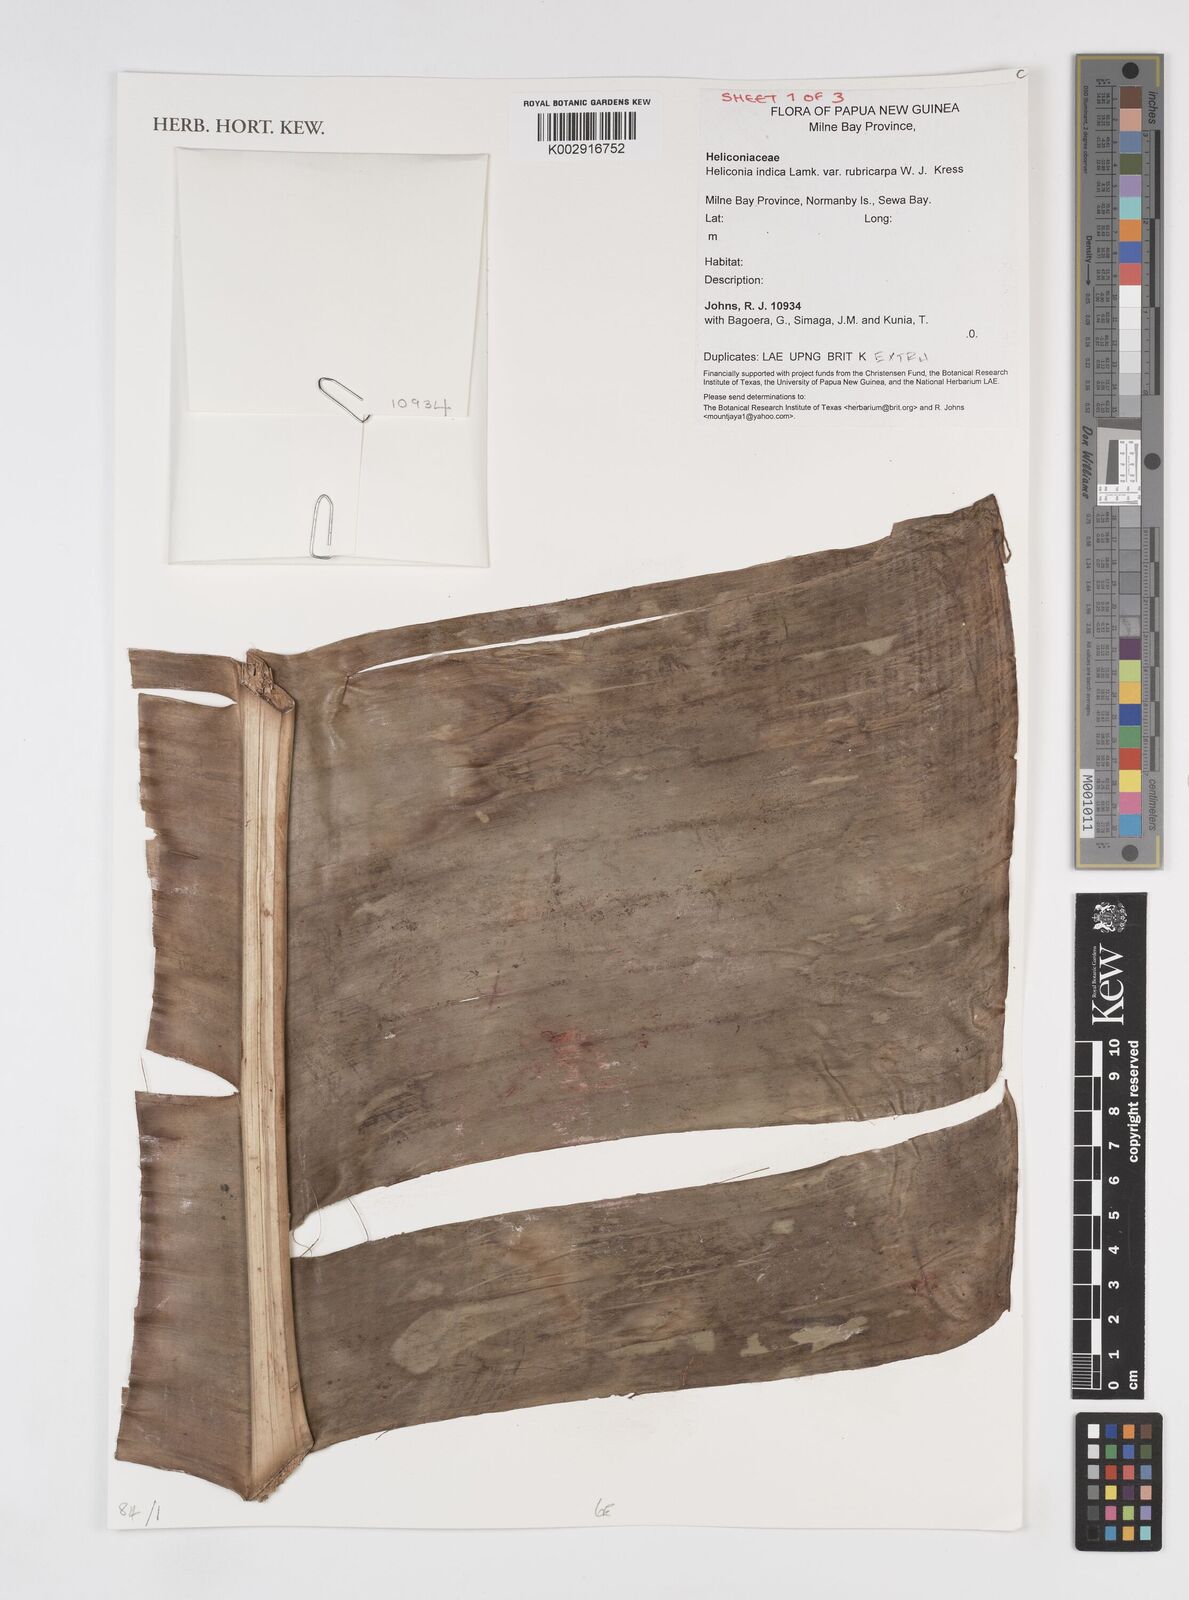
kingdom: Plantae
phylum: Tracheophyta
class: Liliopsida
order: Zingiberales
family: Heliconiaceae
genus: Heliconia
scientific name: Heliconia indica
